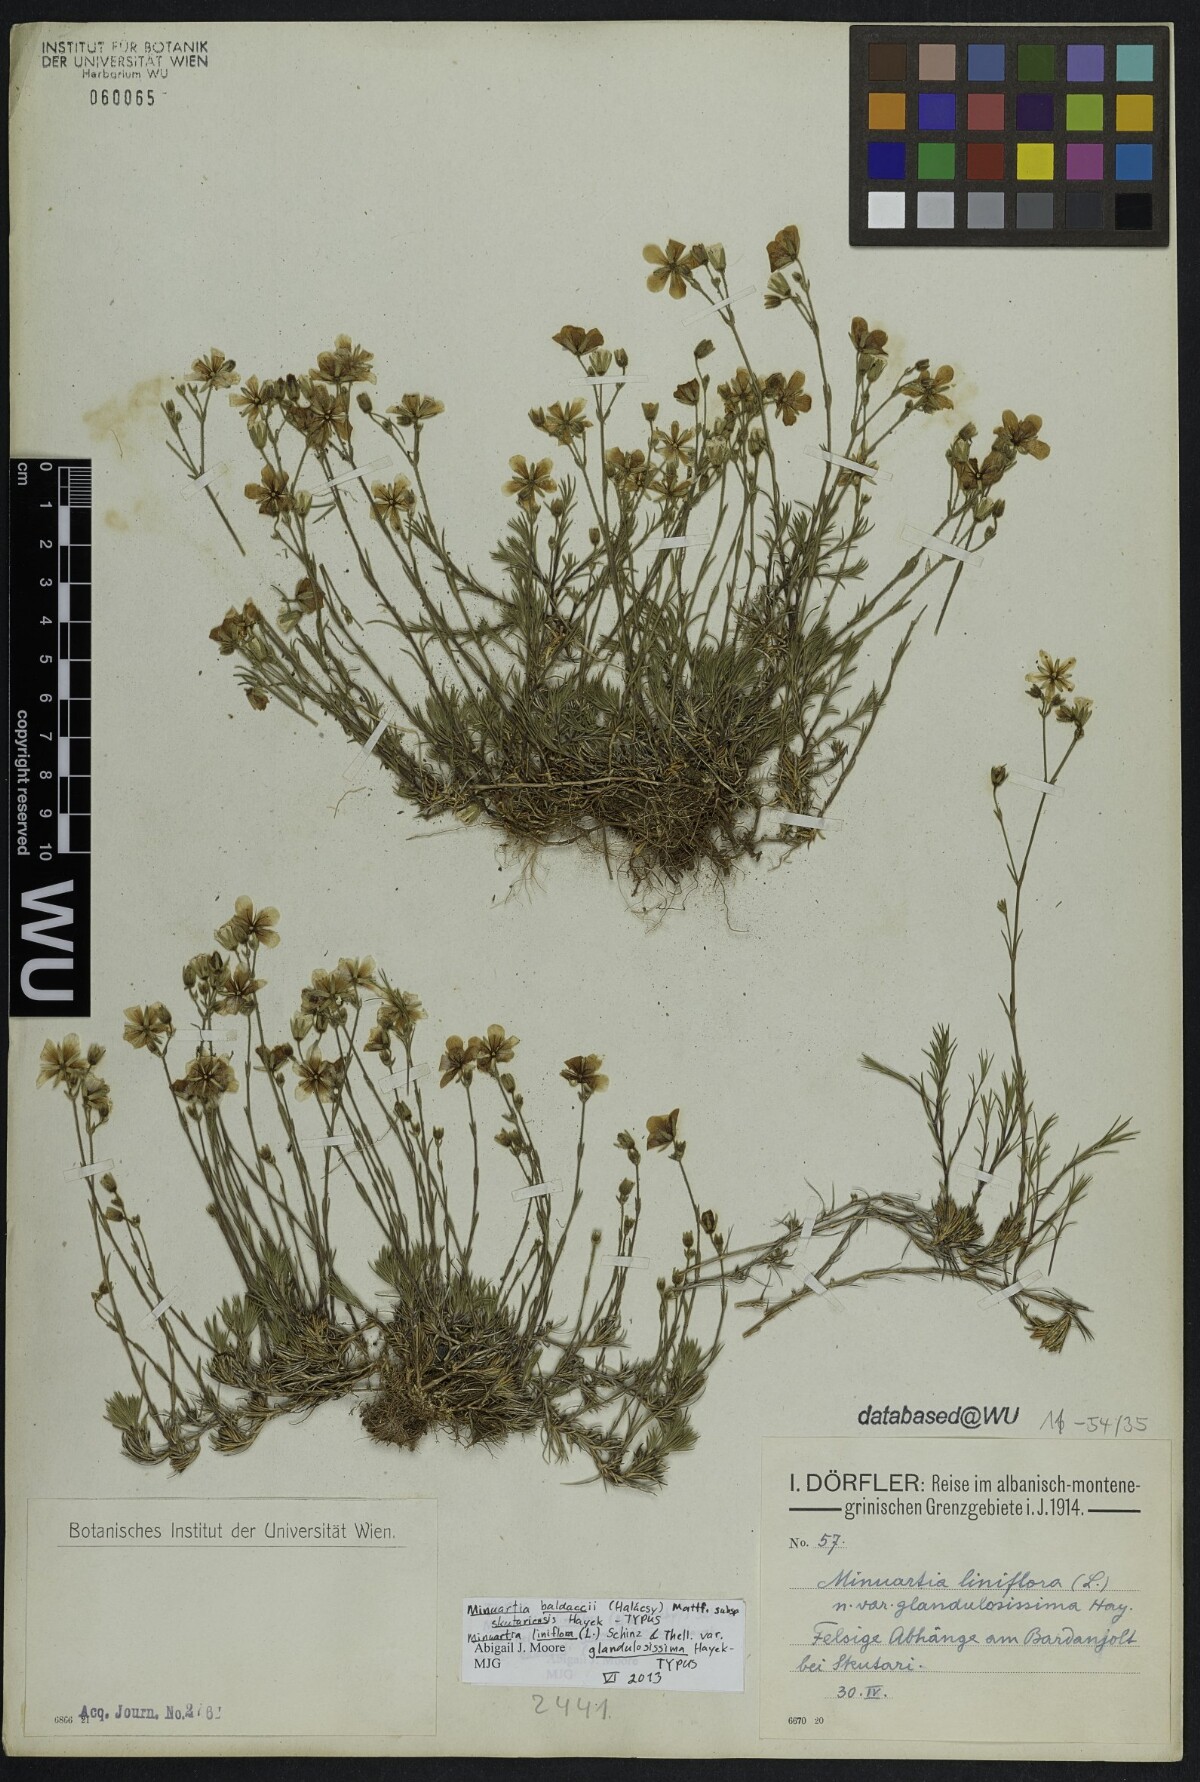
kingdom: Plantae
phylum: Tracheophyta
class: Magnoliopsida
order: Caryophyllales
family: Caryophyllaceae
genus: Cherleria
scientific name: Cherleria garckeana
